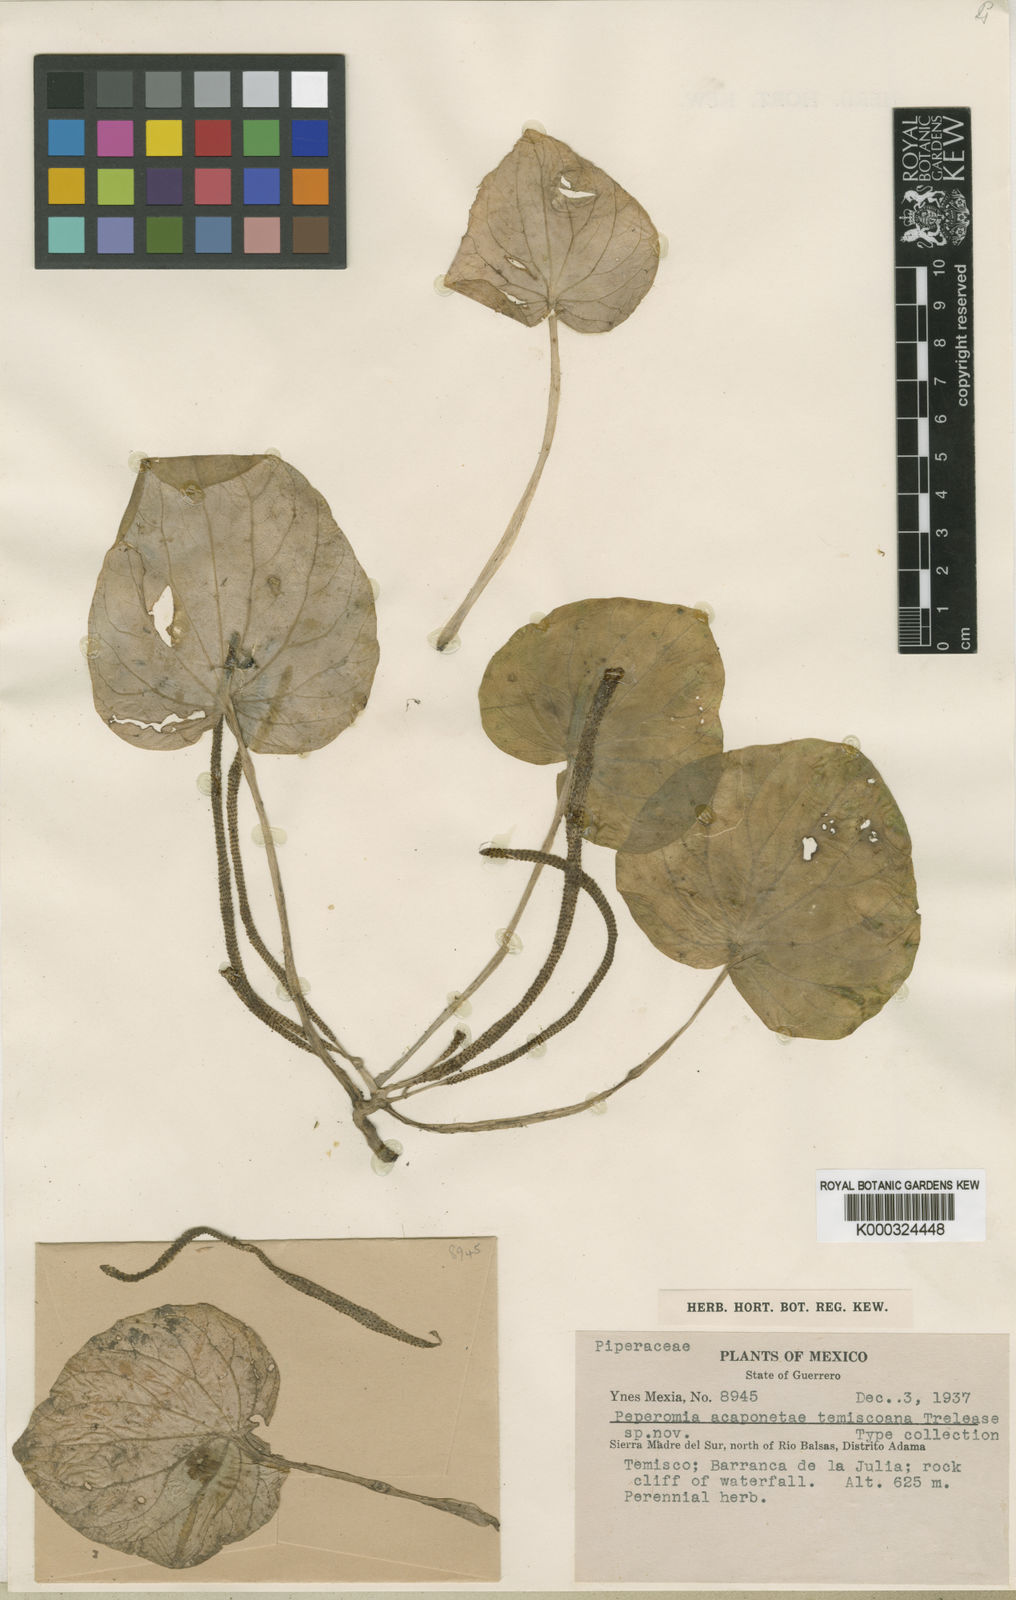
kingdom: Plantae
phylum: Tracheophyta
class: Magnoliopsida
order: Piperales
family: Piperaceae
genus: Peperomia
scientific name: Peperomia
